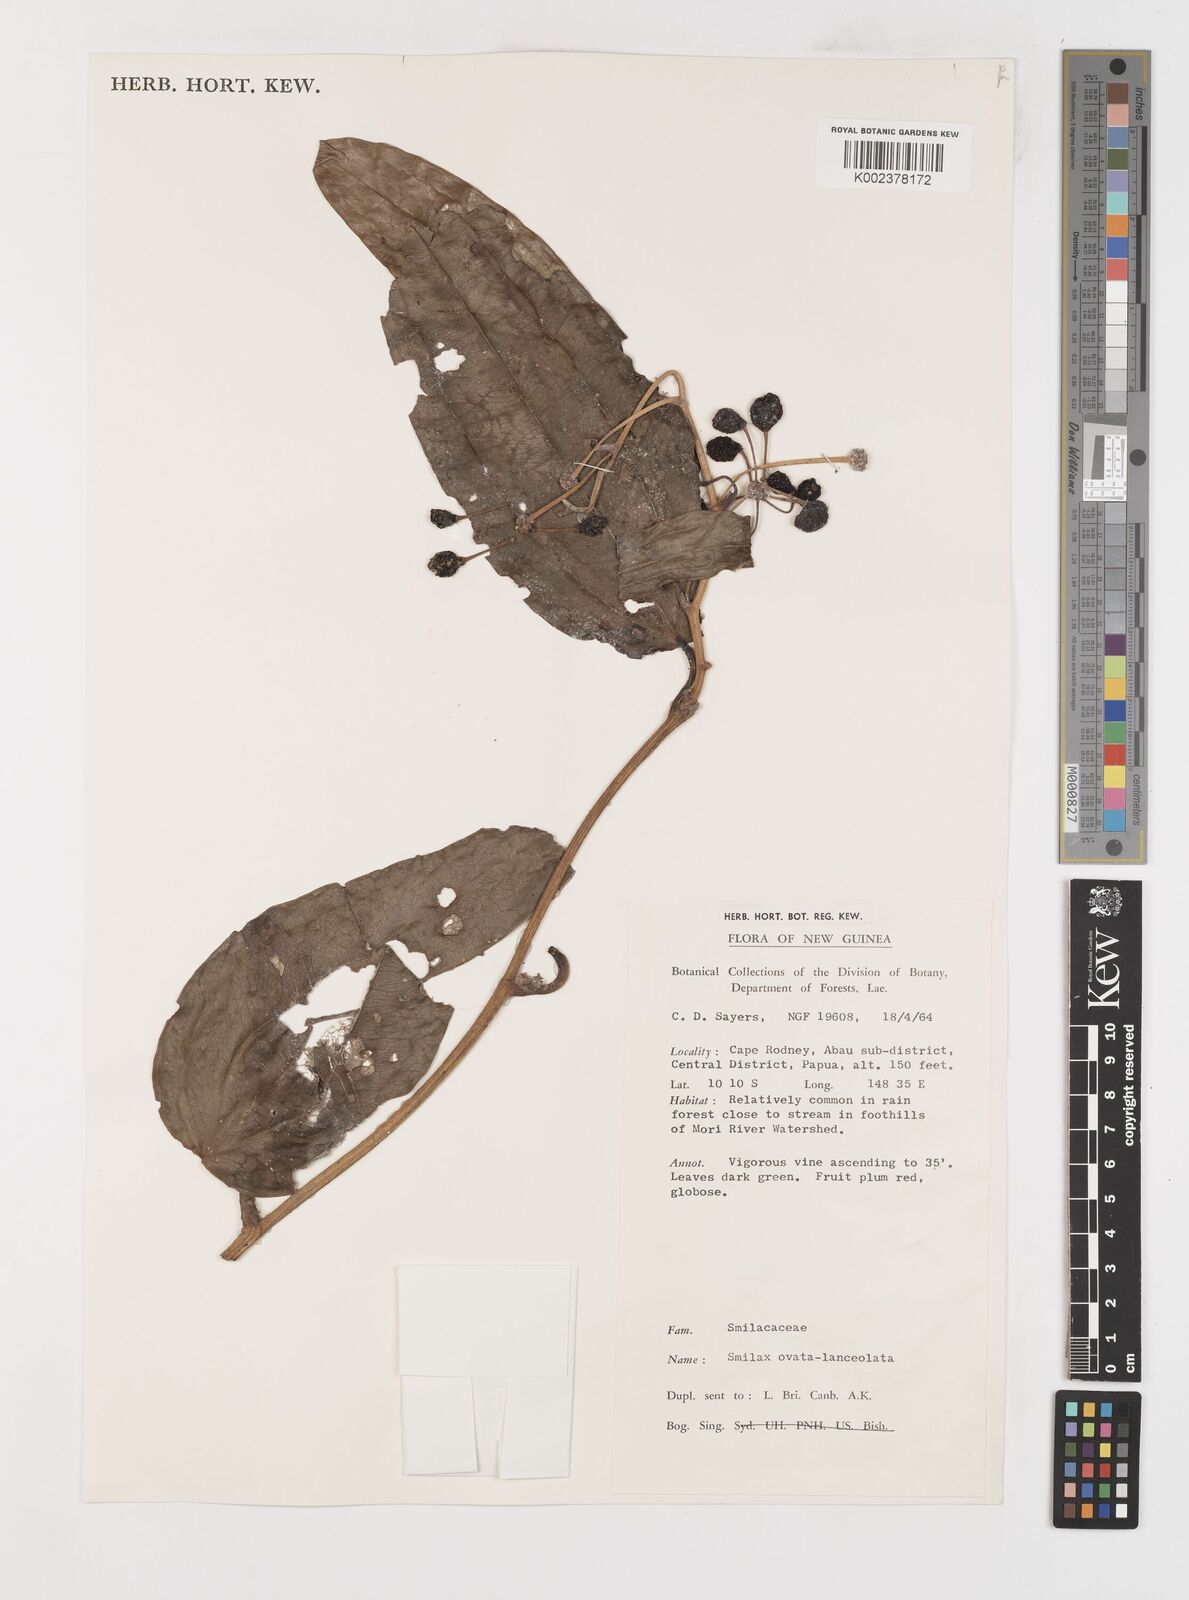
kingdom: Plantae
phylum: Tracheophyta
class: Liliopsida
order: Liliales
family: Smilacaceae
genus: Smilax
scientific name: Smilax ovatolanceolata
